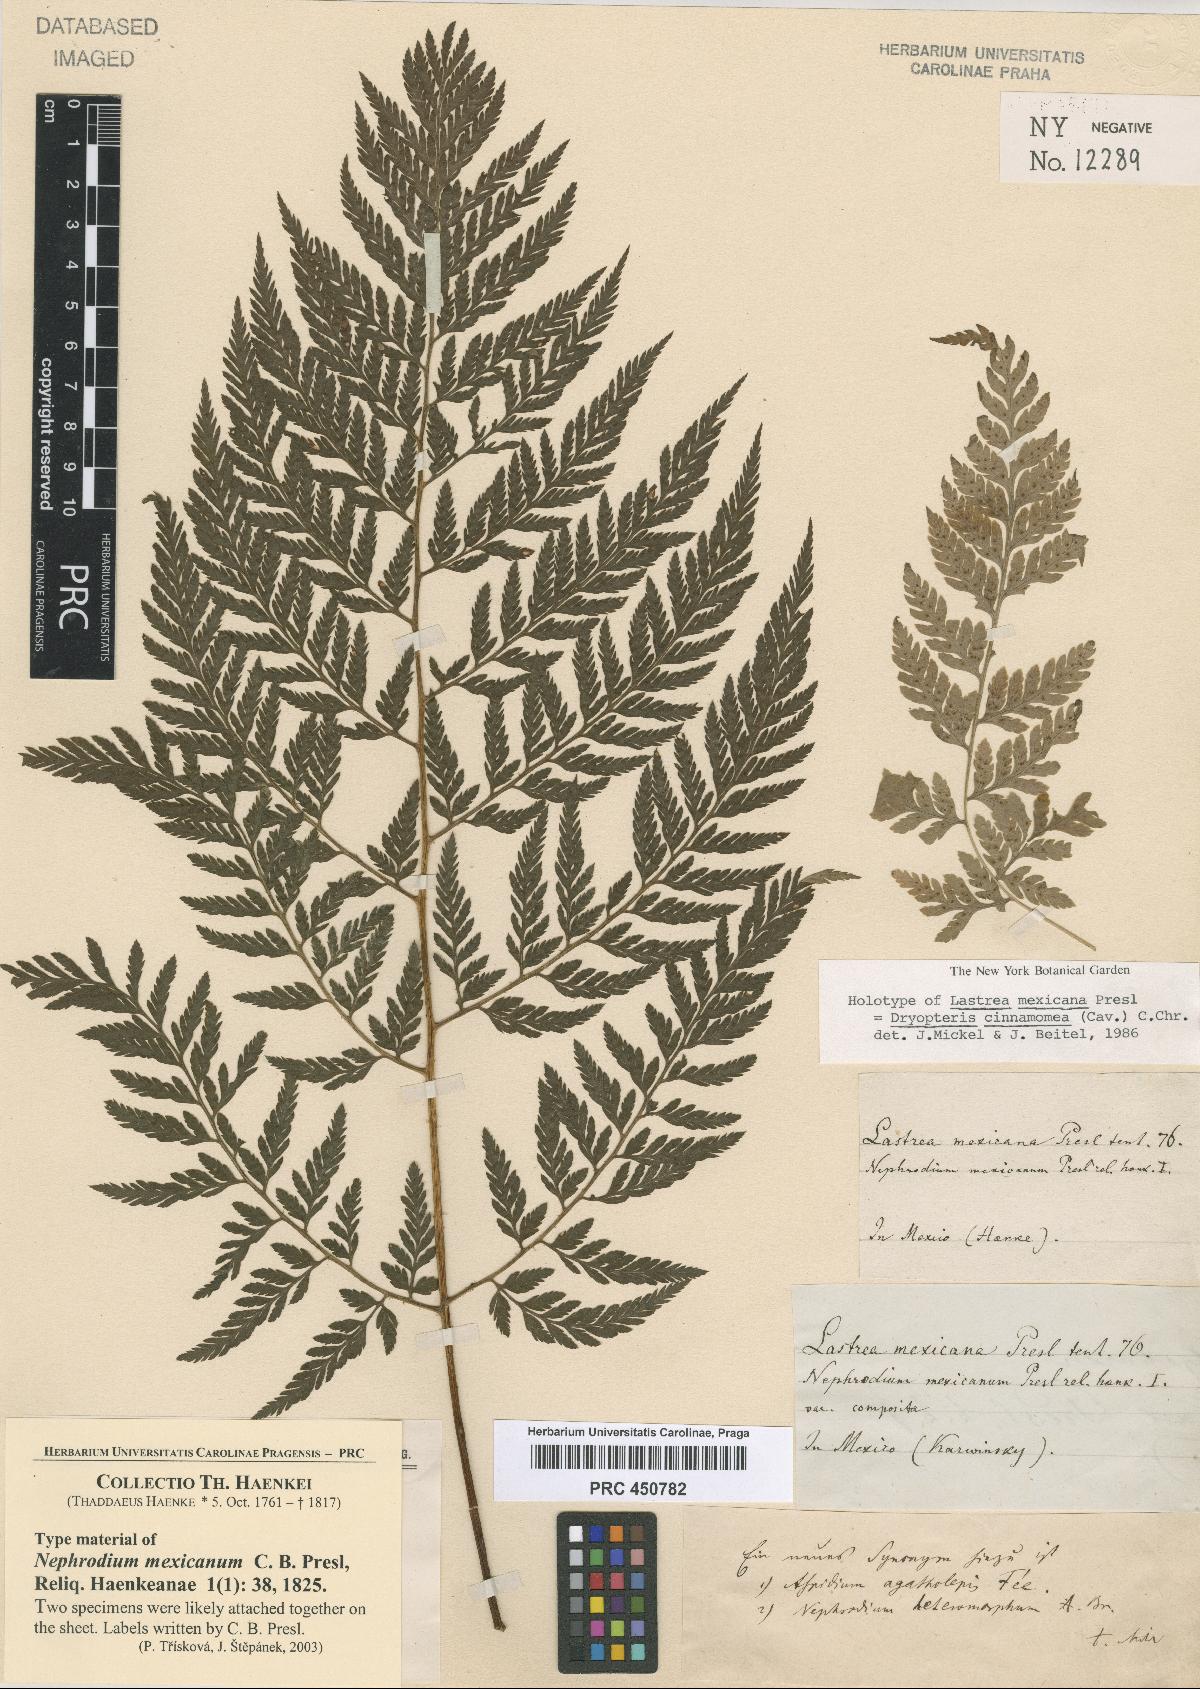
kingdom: Plantae
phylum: Tracheophyta
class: Polypodiopsida
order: Polypodiales
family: Dryopteridaceae
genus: Dryopteris
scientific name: Dryopteris cinnamomea
